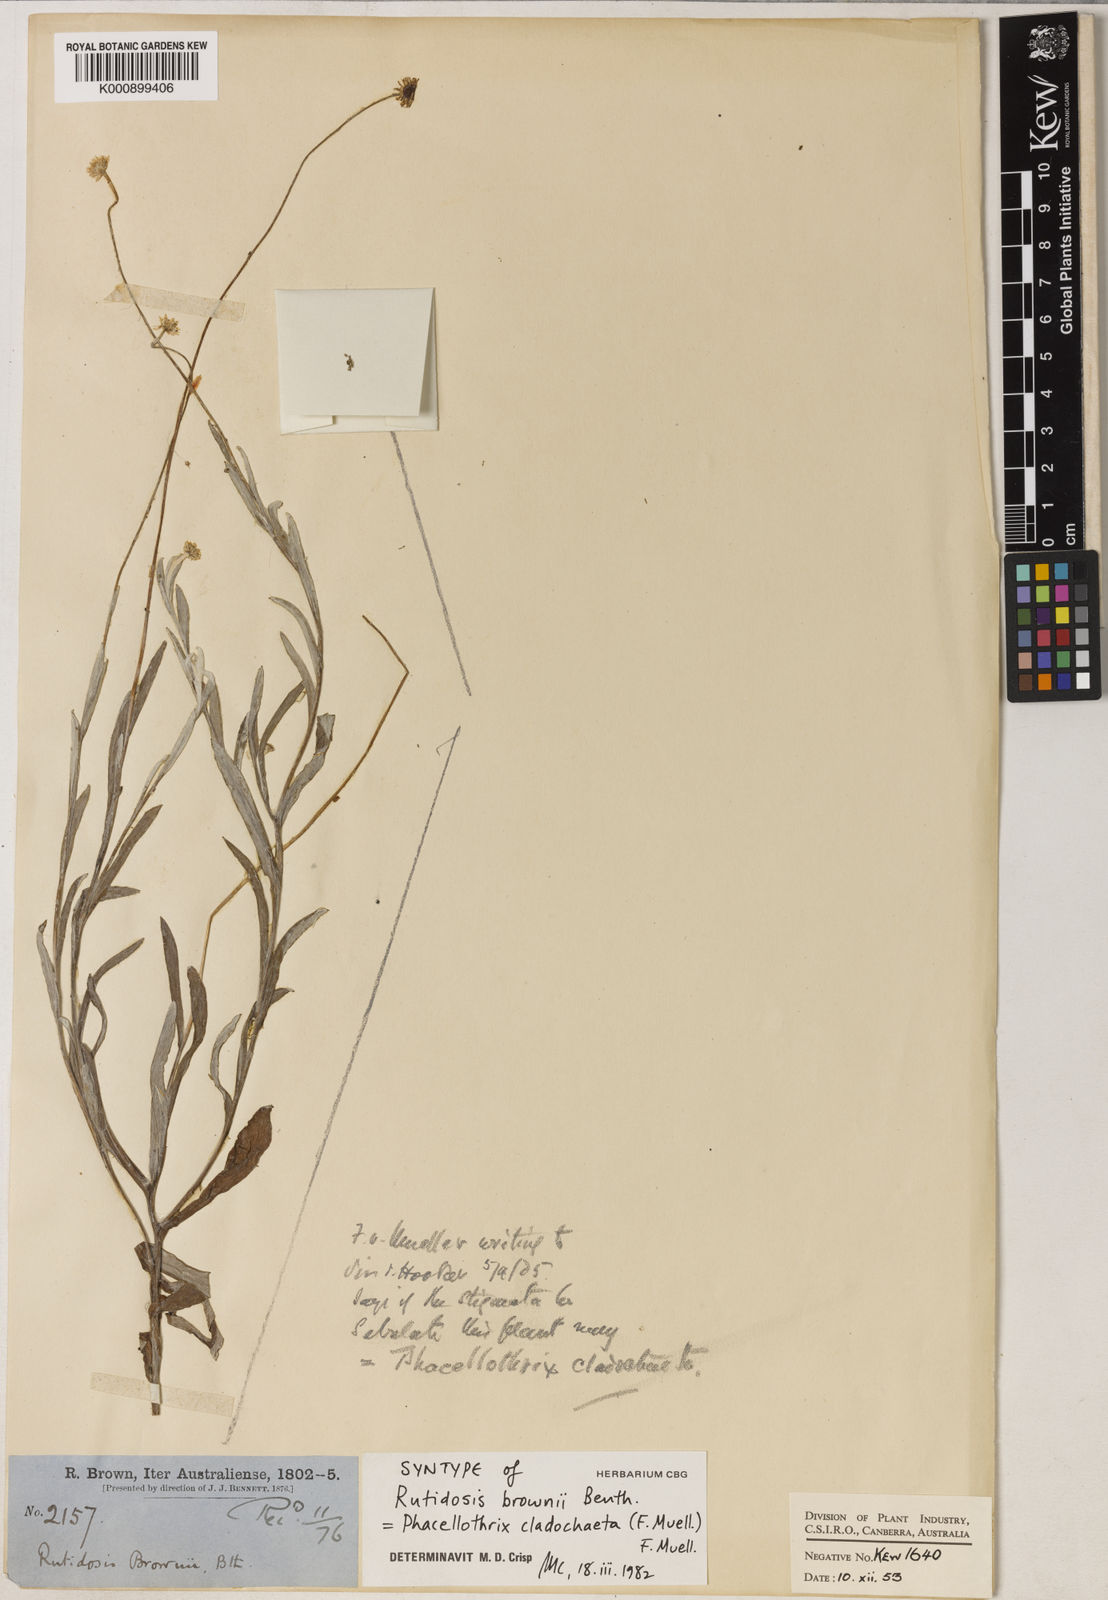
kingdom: Plantae
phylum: Tracheophyta
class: Magnoliopsida
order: Asterales
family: Asteraceae
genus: Phacellothrix
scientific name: Phacellothrix cladochaeta
